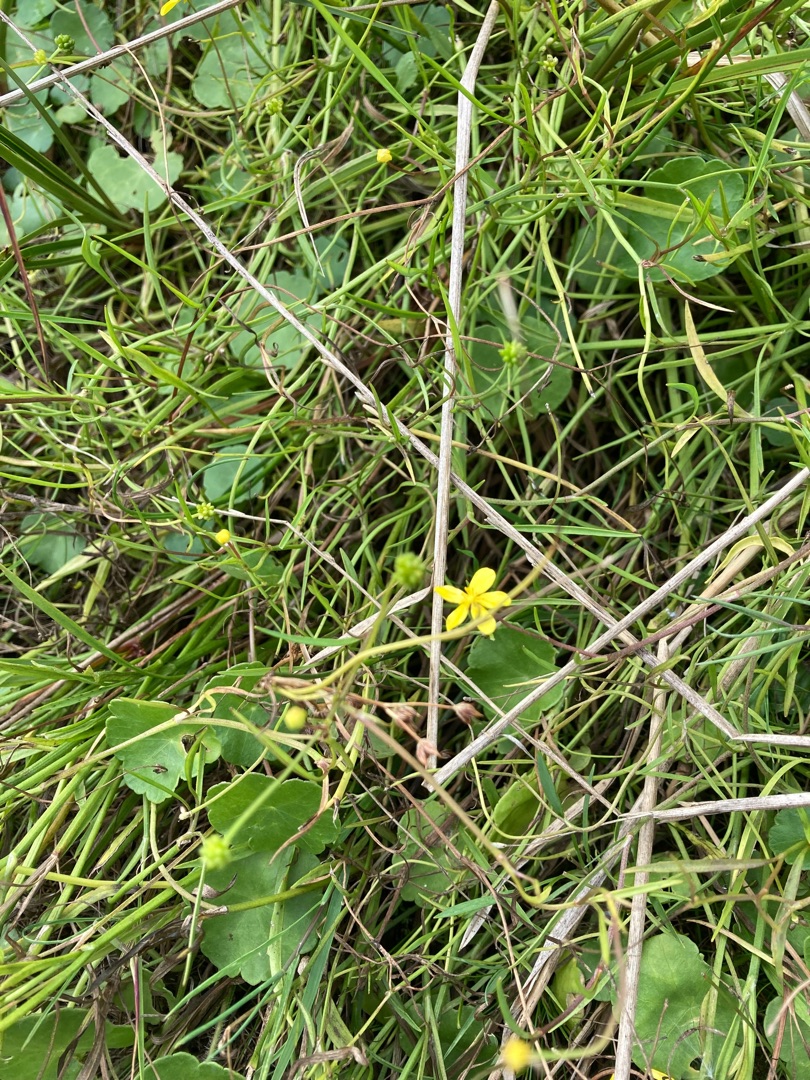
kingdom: Plantae
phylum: Tracheophyta
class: Magnoliopsida
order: Ranunculales
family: Ranunculaceae
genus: Ranunculus
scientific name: Ranunculus flammula
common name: Kær-ranunkel
